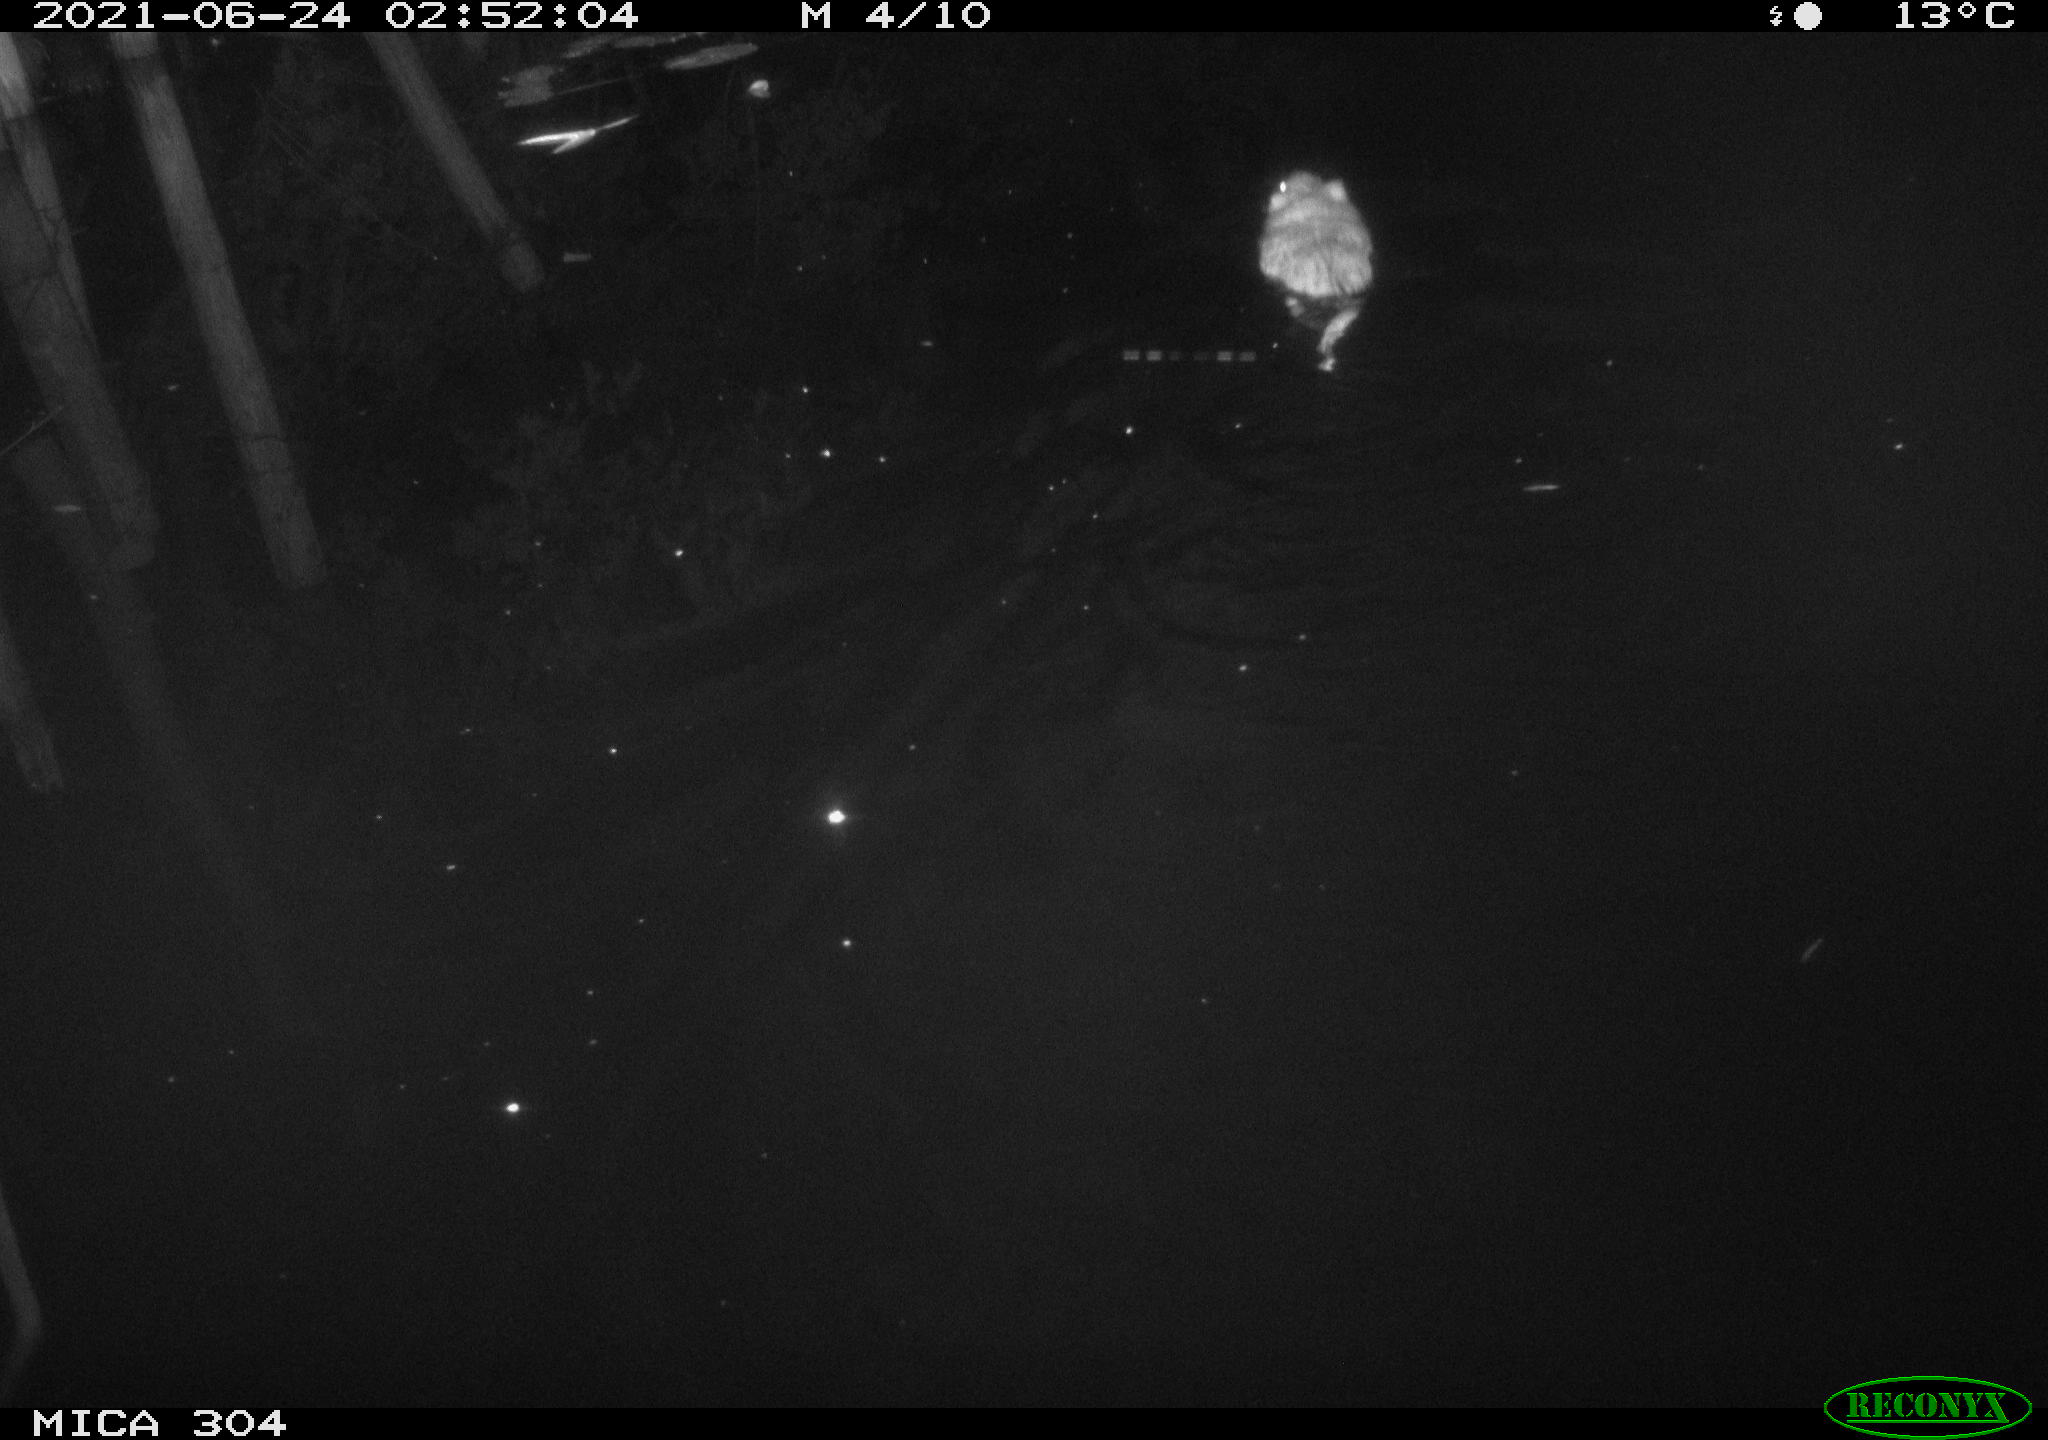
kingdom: Animalia
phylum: Chordata
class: Mammalia
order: Rodentia
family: Cricetidae
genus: Ondatra
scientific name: Ondatra zibethicus
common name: Muskrat
